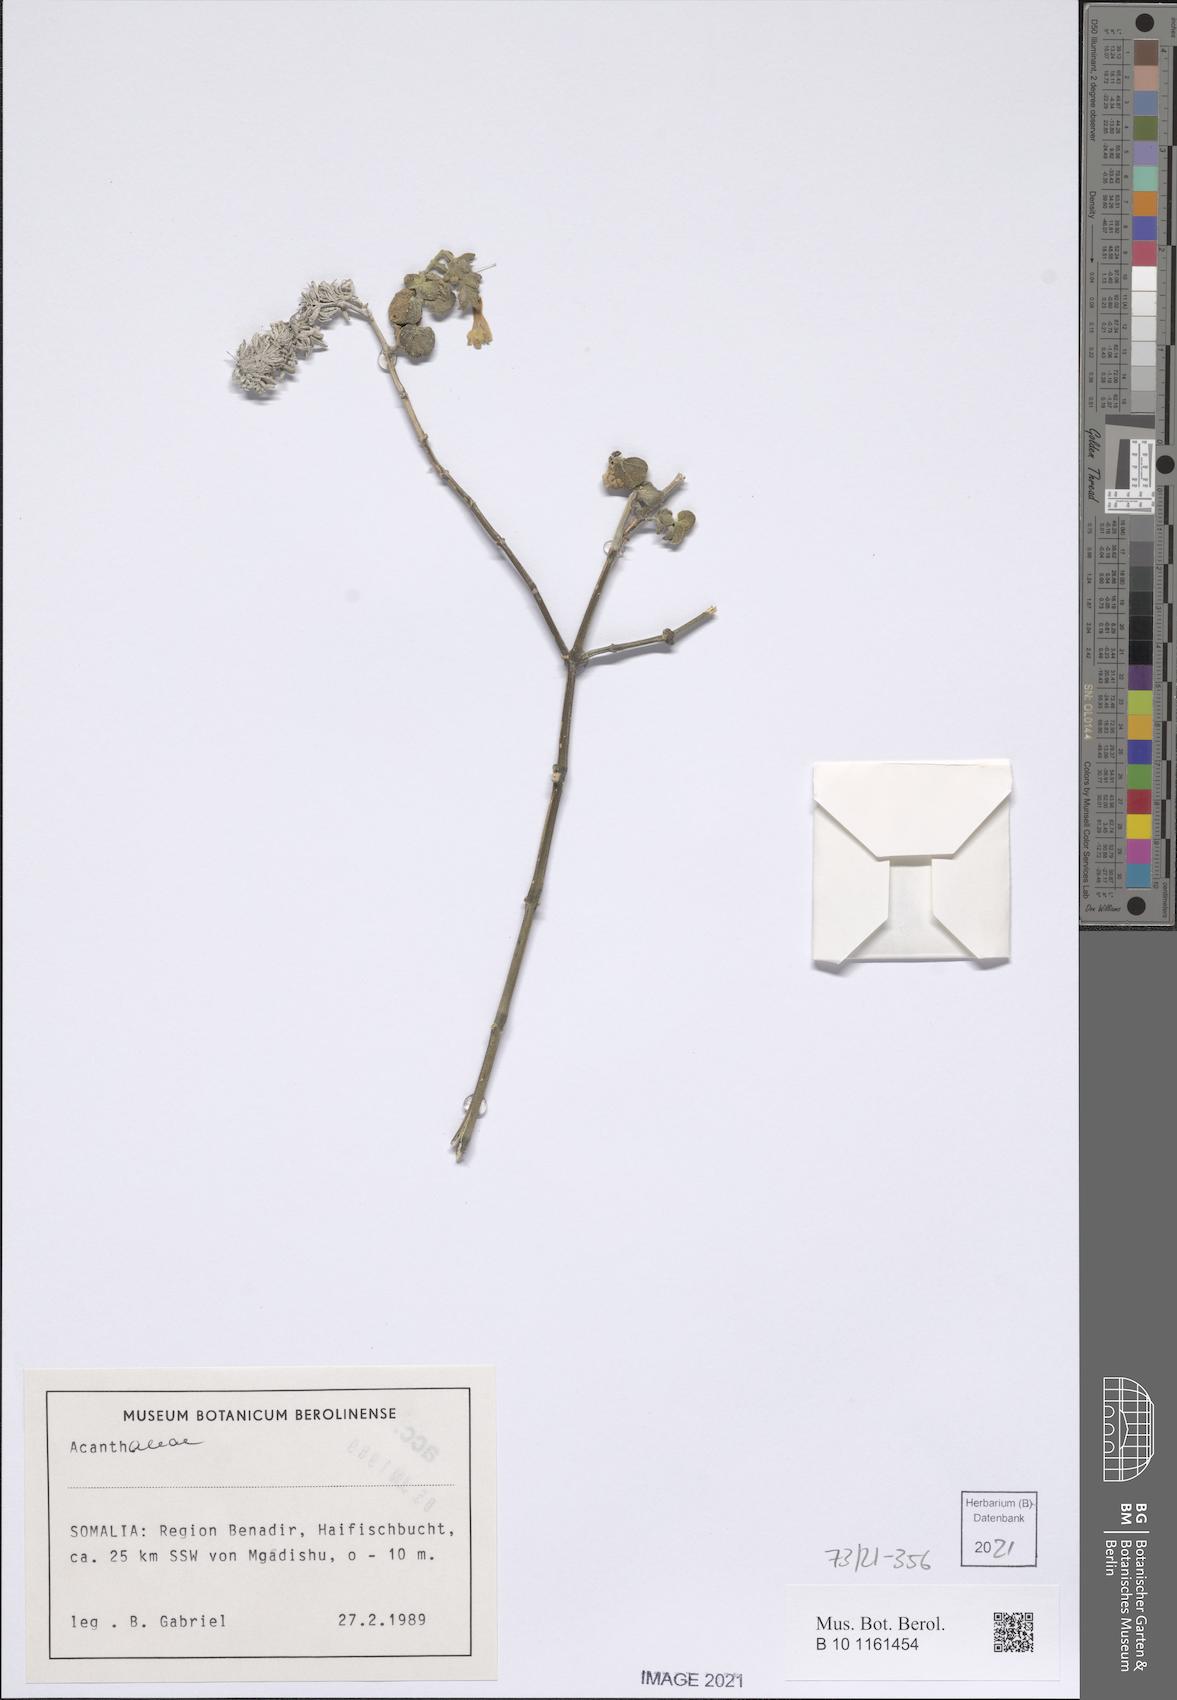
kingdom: Plantae
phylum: Tracheophyta
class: Magnoliopsida
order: Lamiales
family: Acanthaceae
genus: Justicia
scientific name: Justicia baravensis
